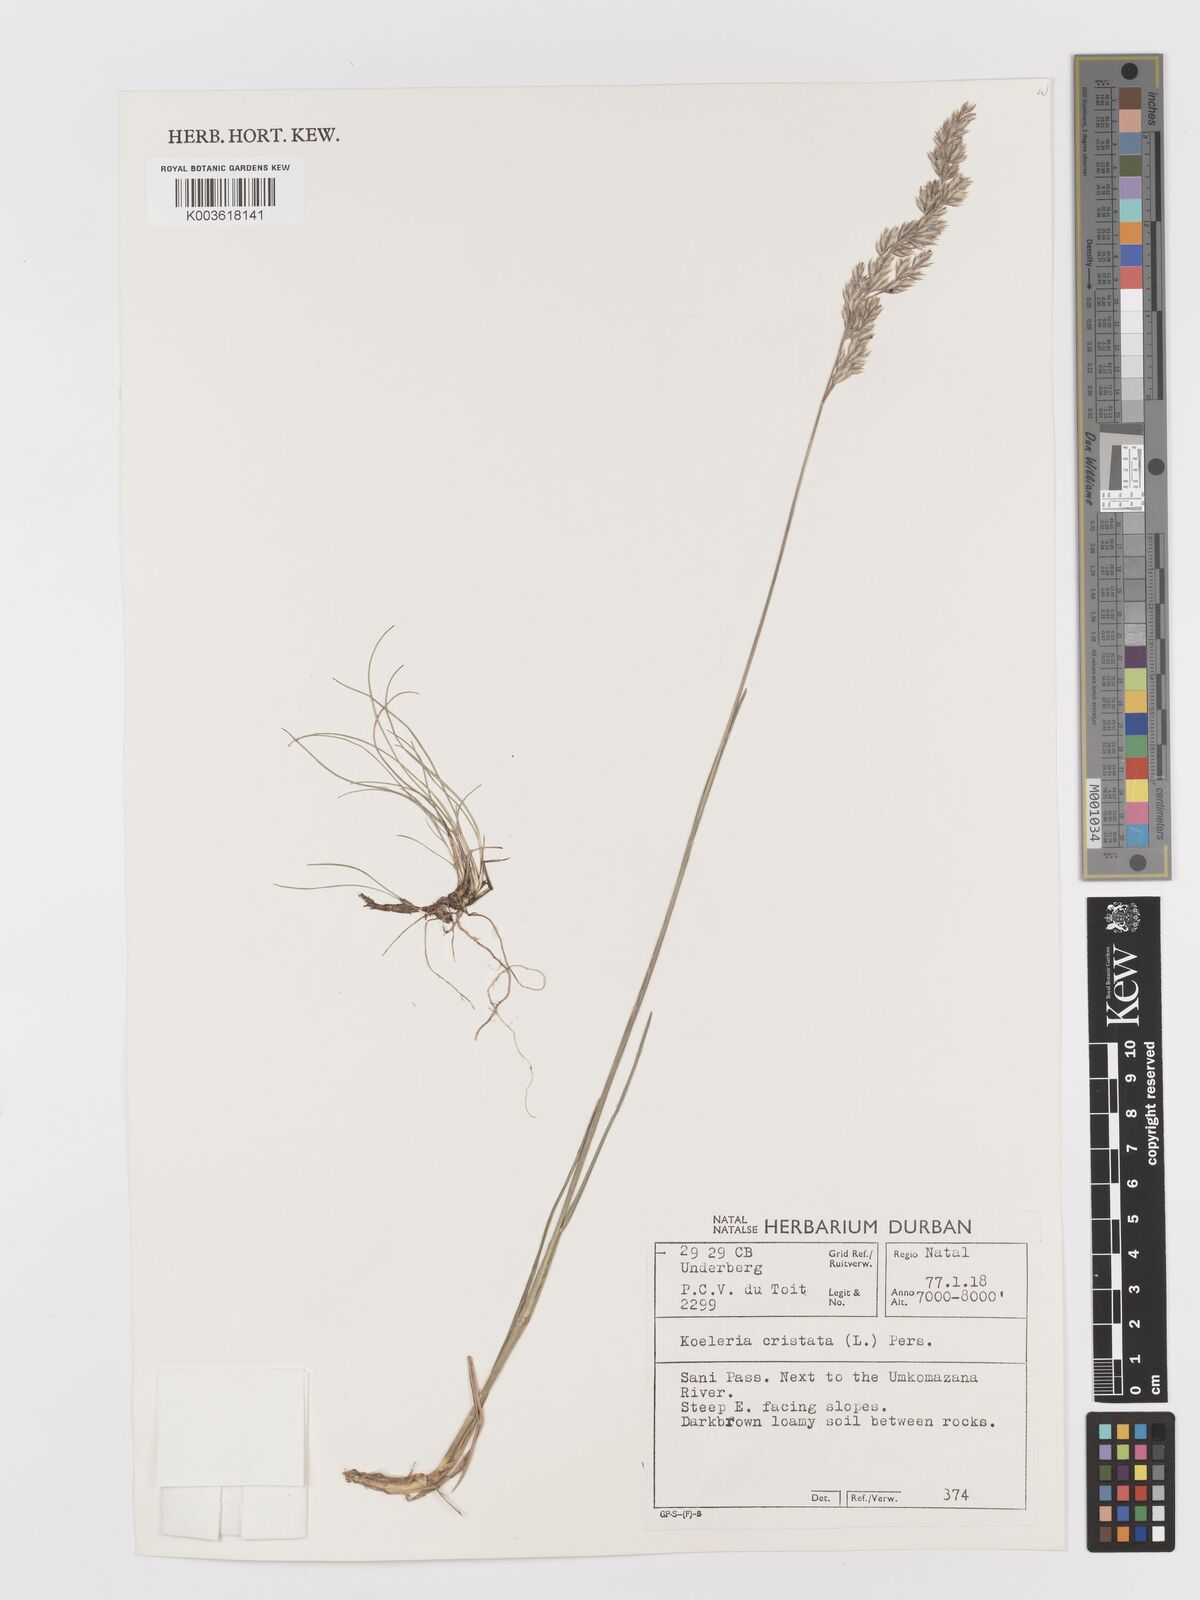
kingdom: Plantae
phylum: Tracheophyta
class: Liliopsida
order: Poales
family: Poaceae
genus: Koeleria
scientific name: Koeleria capensis
